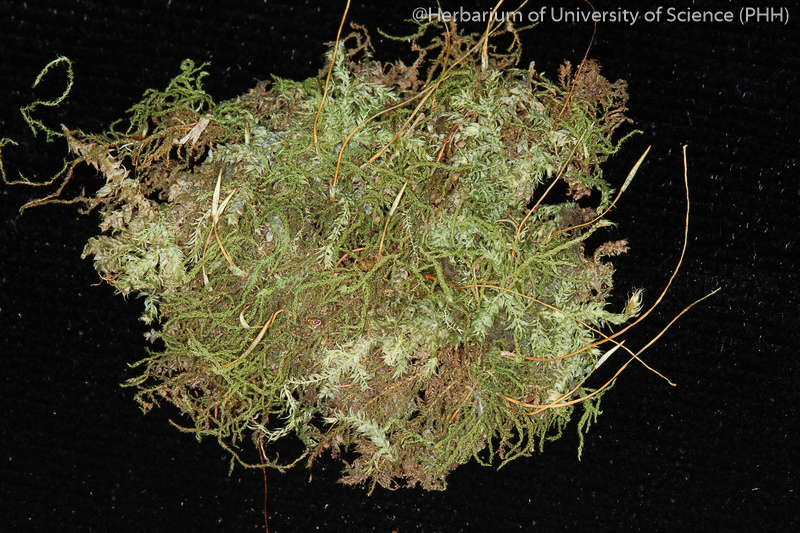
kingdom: Plantae
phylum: Bryophyta
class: Bryopsida
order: Hypnales
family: Leskeaceae
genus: Haplocladium
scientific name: Haplocladium angustifolium
